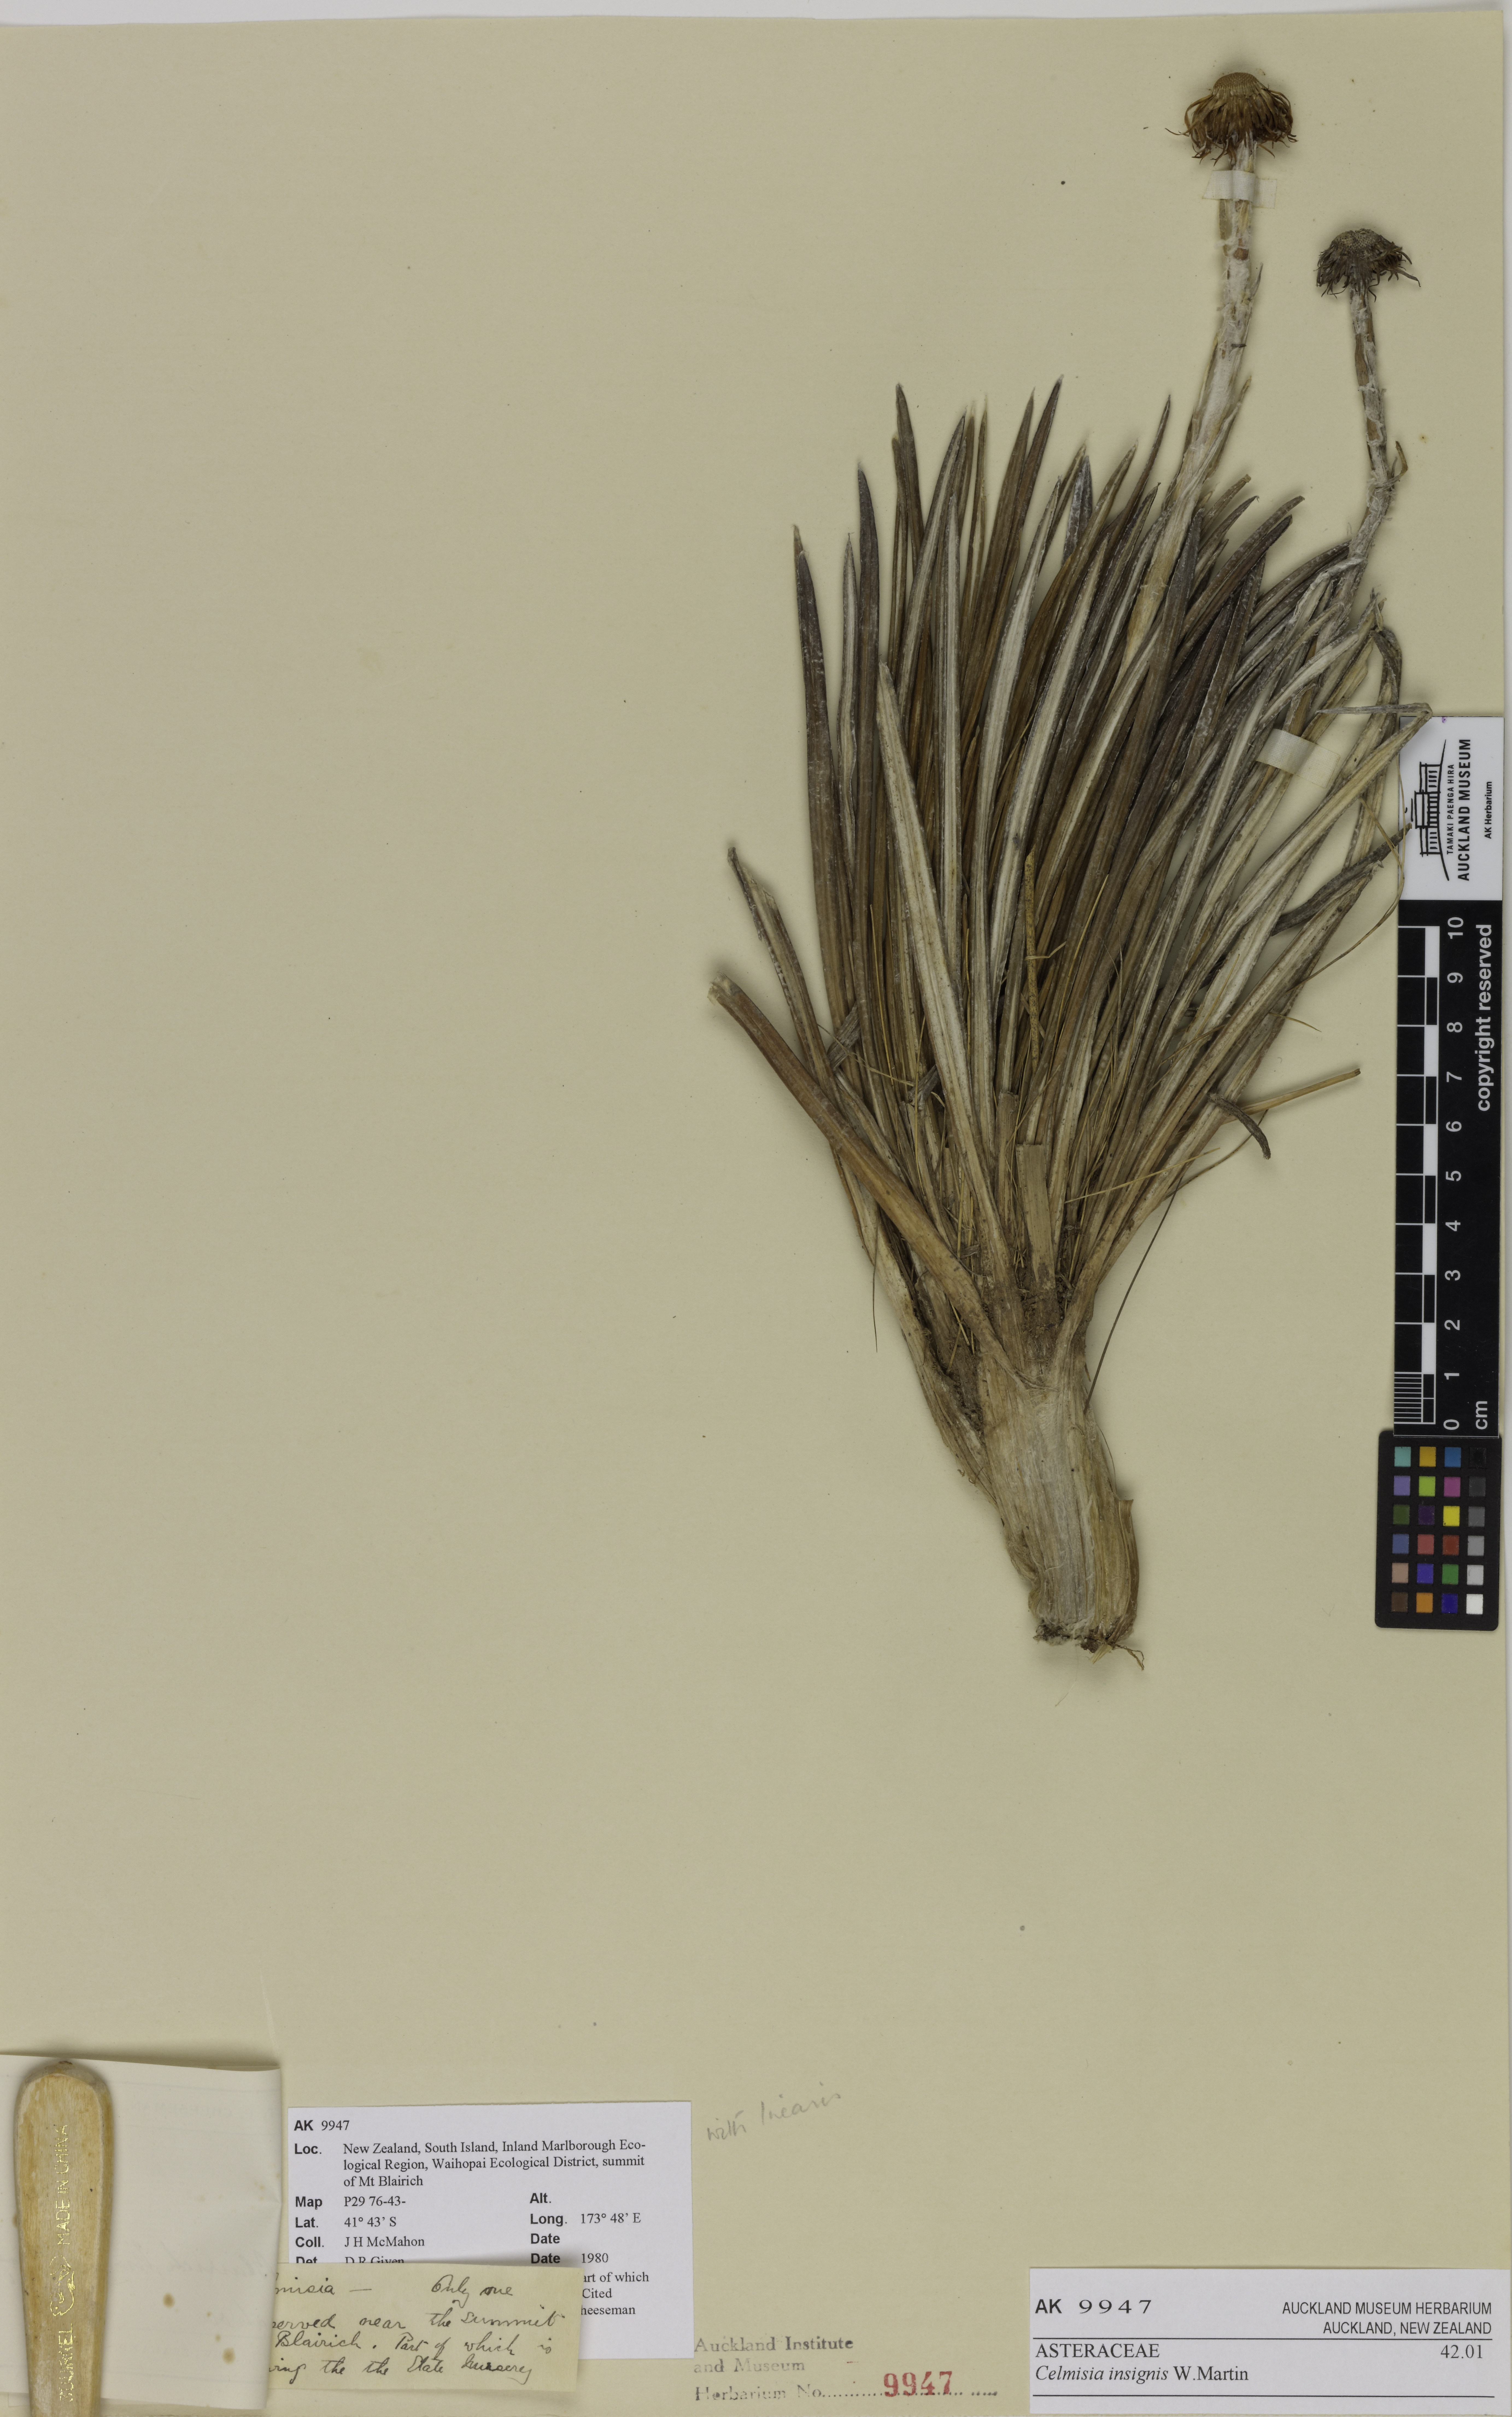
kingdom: Plantae
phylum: Tracheophyta
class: Magnoliopsida
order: Asterales
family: Asteraceae
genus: Celmisia
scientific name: Celmisia insignis
